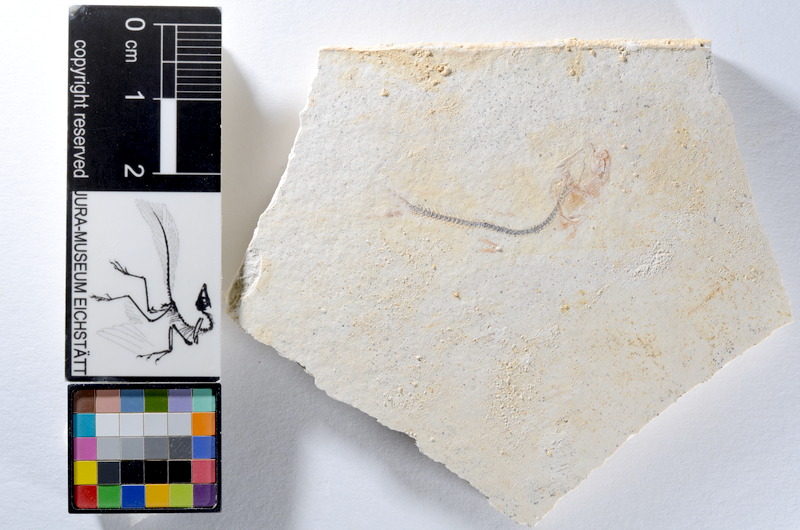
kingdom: Animalia
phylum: Chordata
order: Salmoniformes
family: Orthogonikleithridae
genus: Orthogonikleithrus
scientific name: Orthogonikleithrus hoelli
